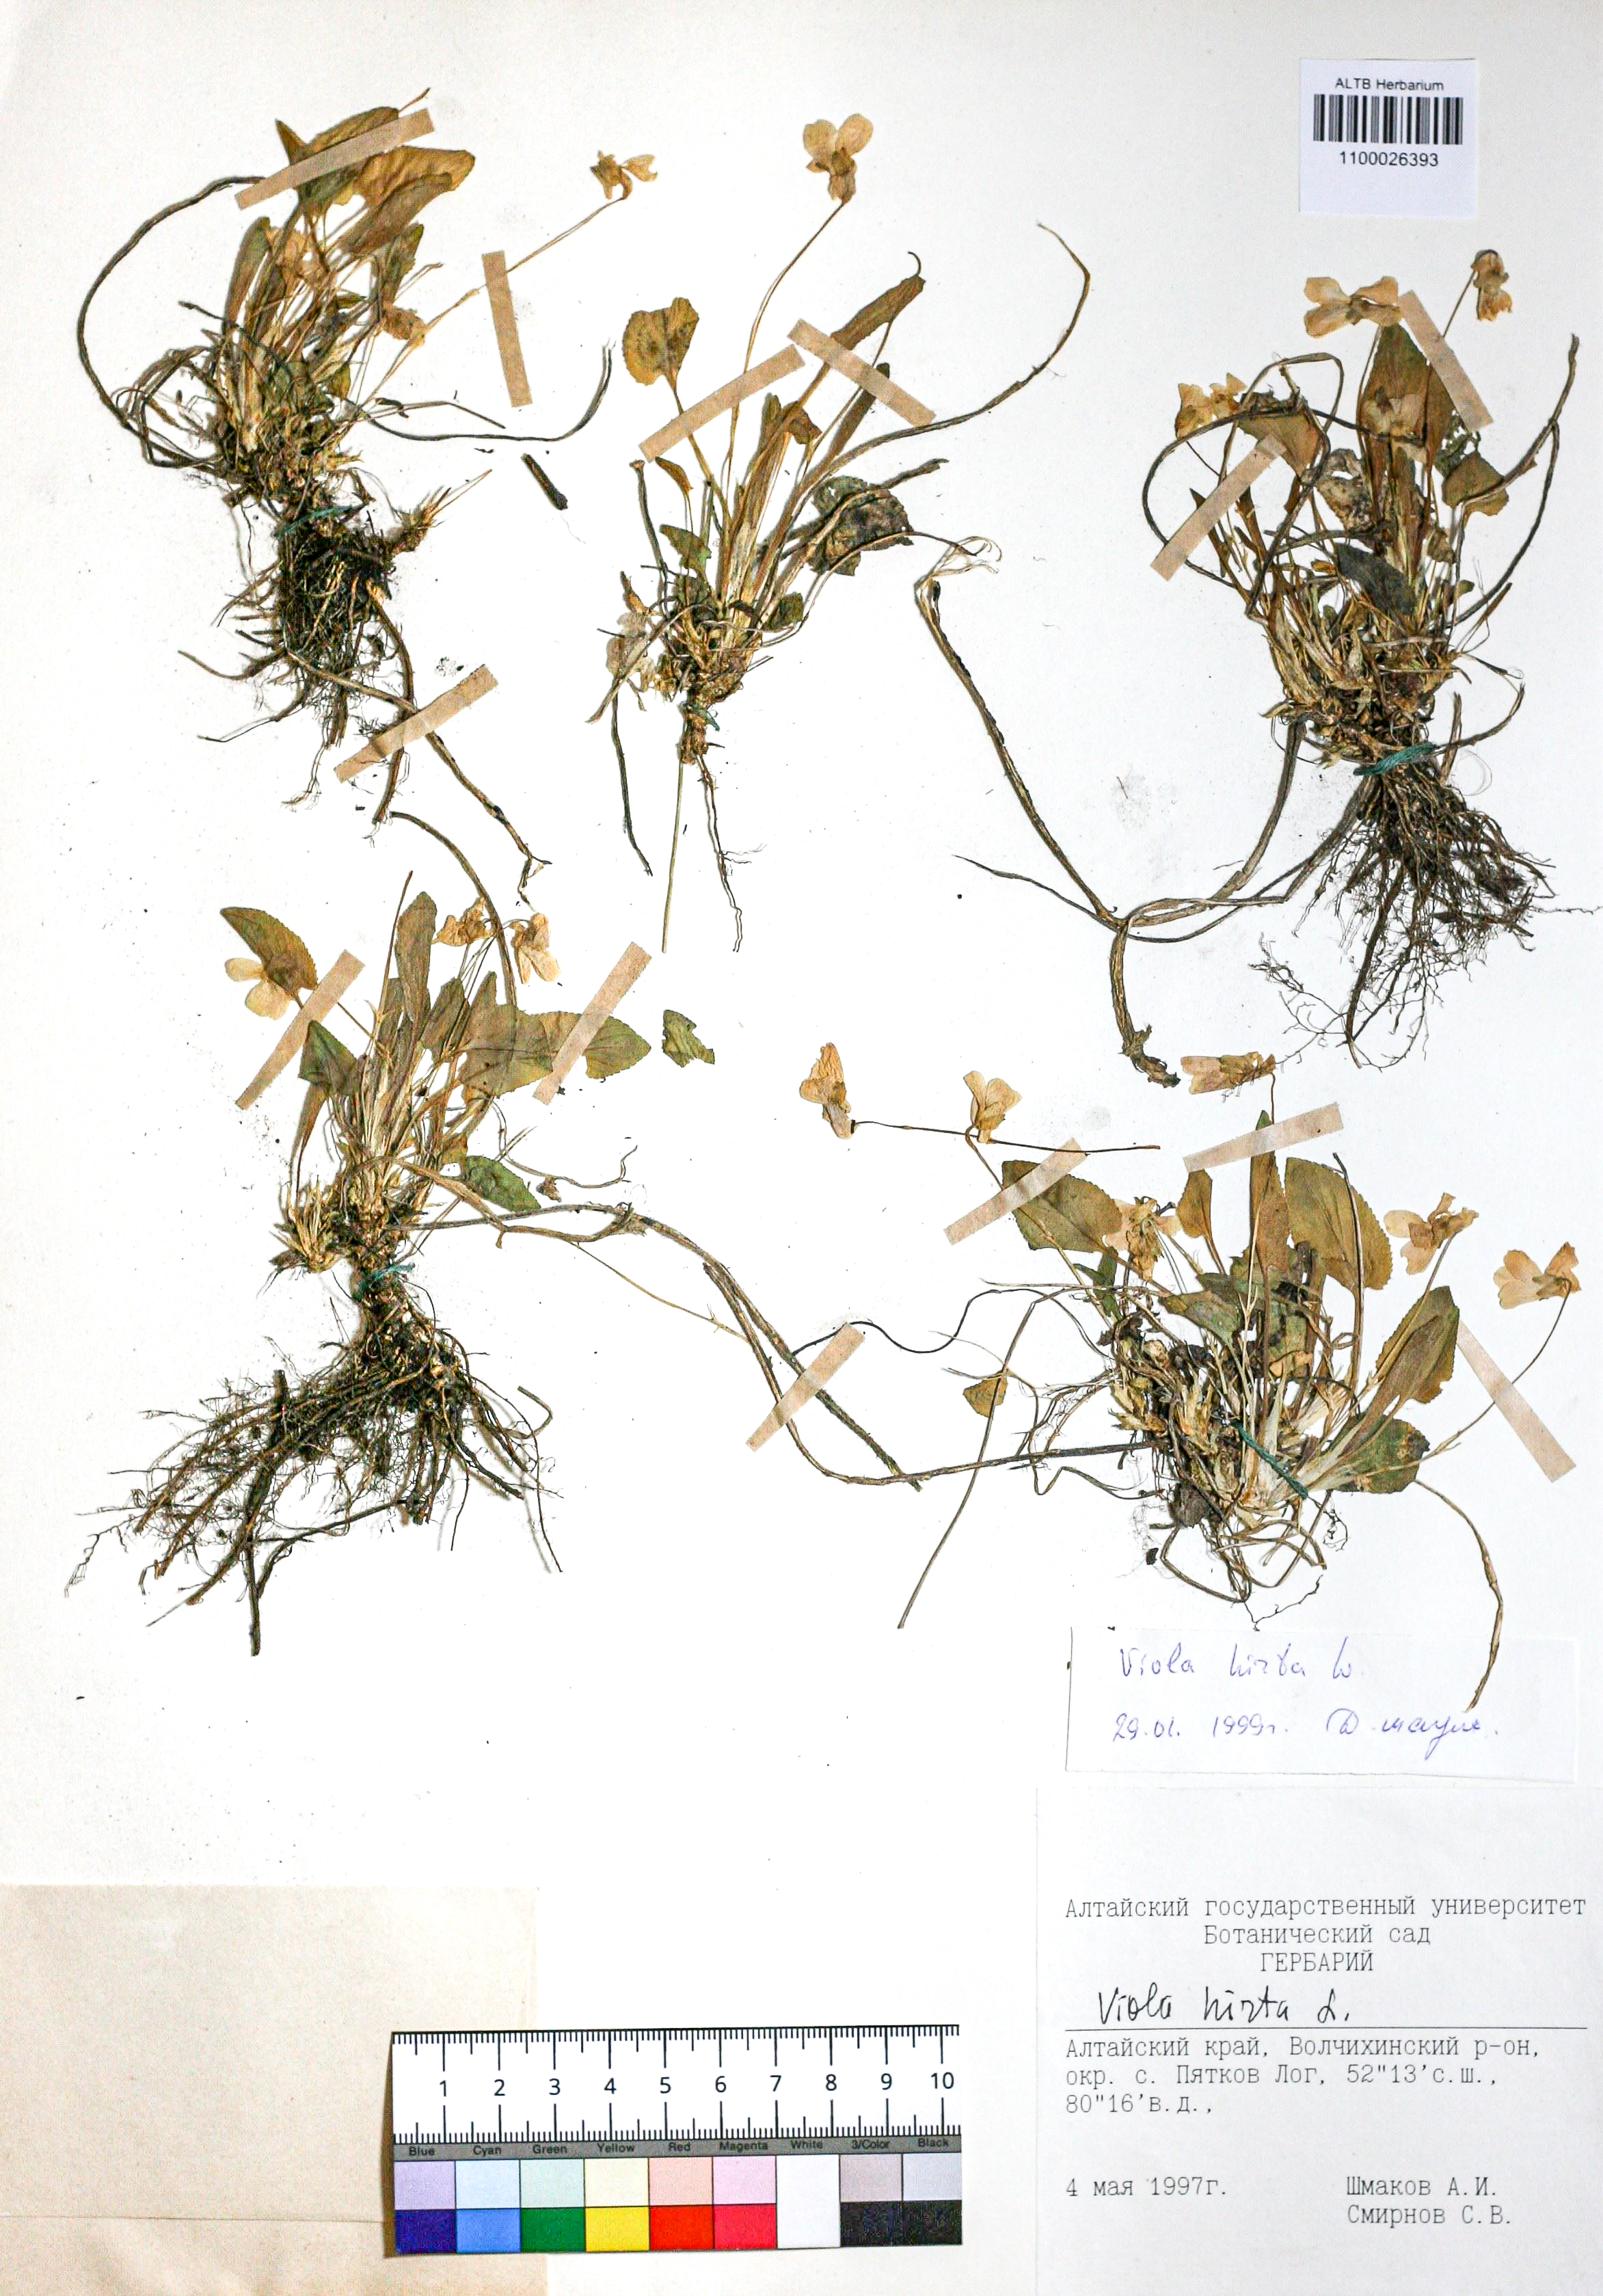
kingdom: Plantae
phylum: Tracheophyta
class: Magnoliopsida
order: Malpighiales
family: Violaceae
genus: Viola
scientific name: Viola hirta
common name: Hairy violet
